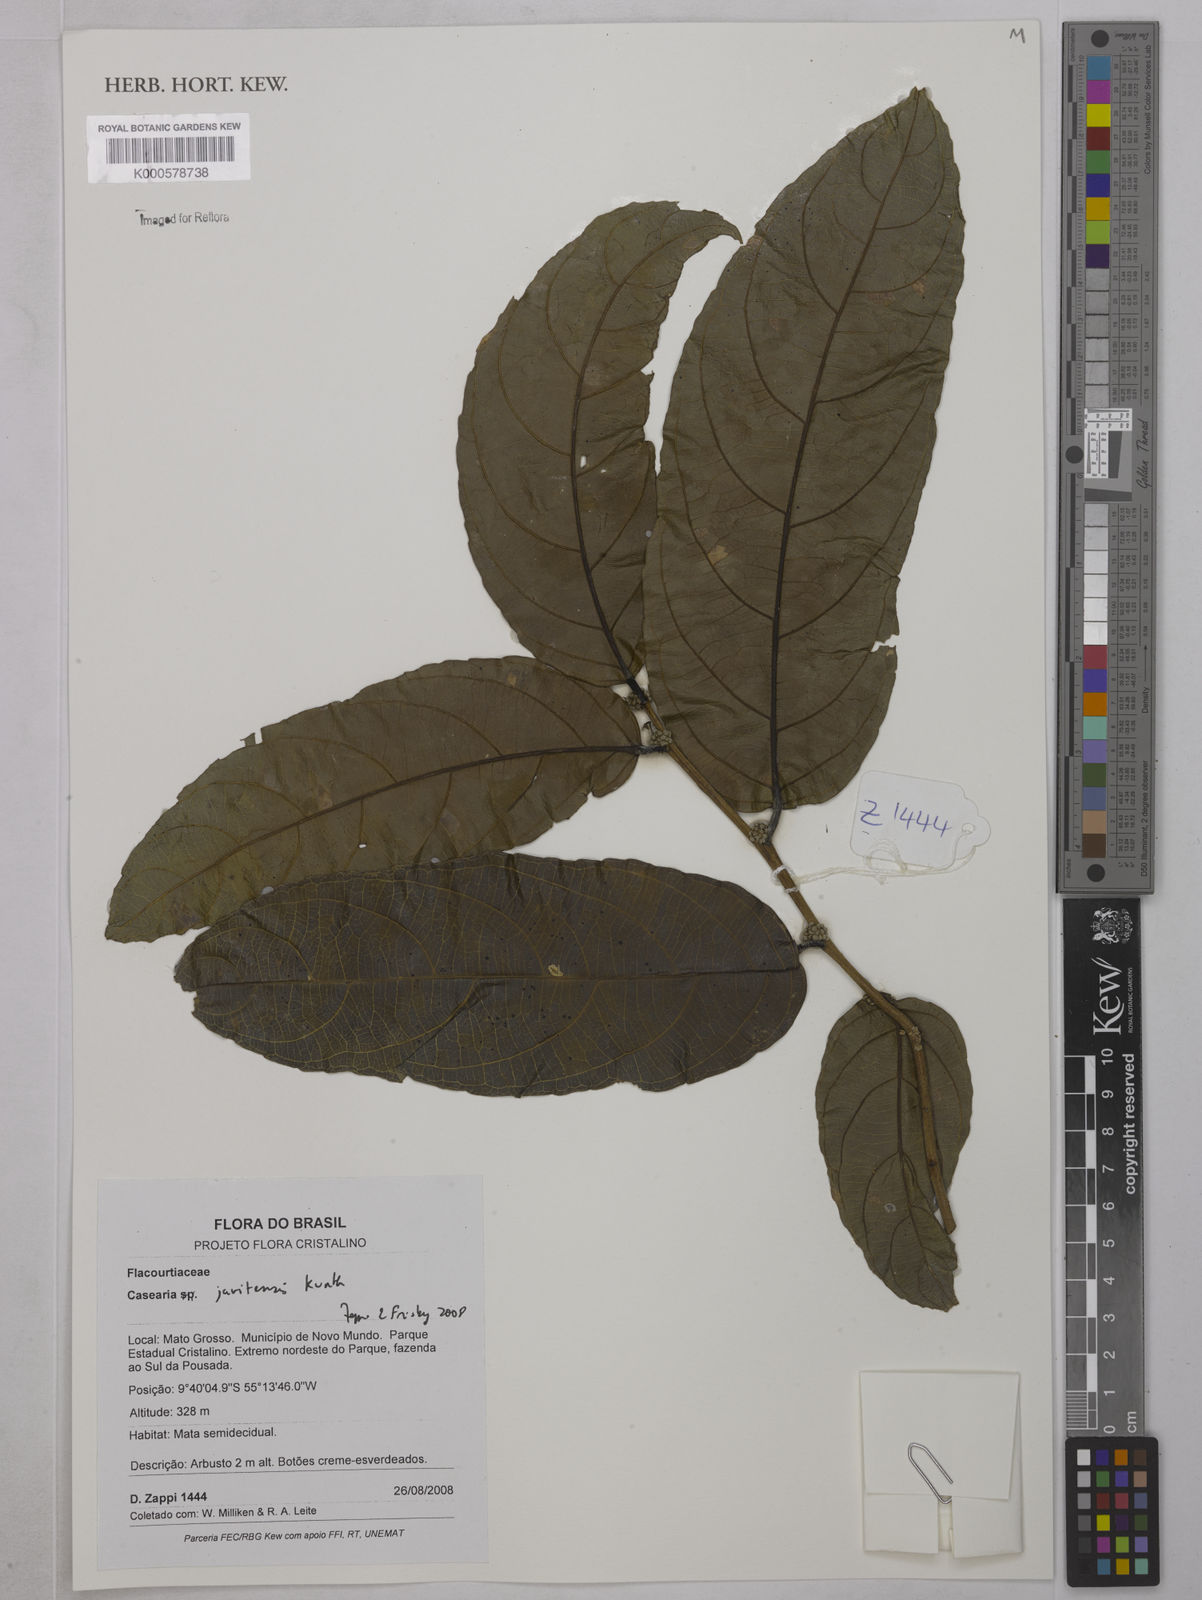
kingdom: Plantae
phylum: Tracheophyta
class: Magnoliopsida
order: Malpighiales
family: Salicaceae
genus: Piparea
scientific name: Piparea multiflora
